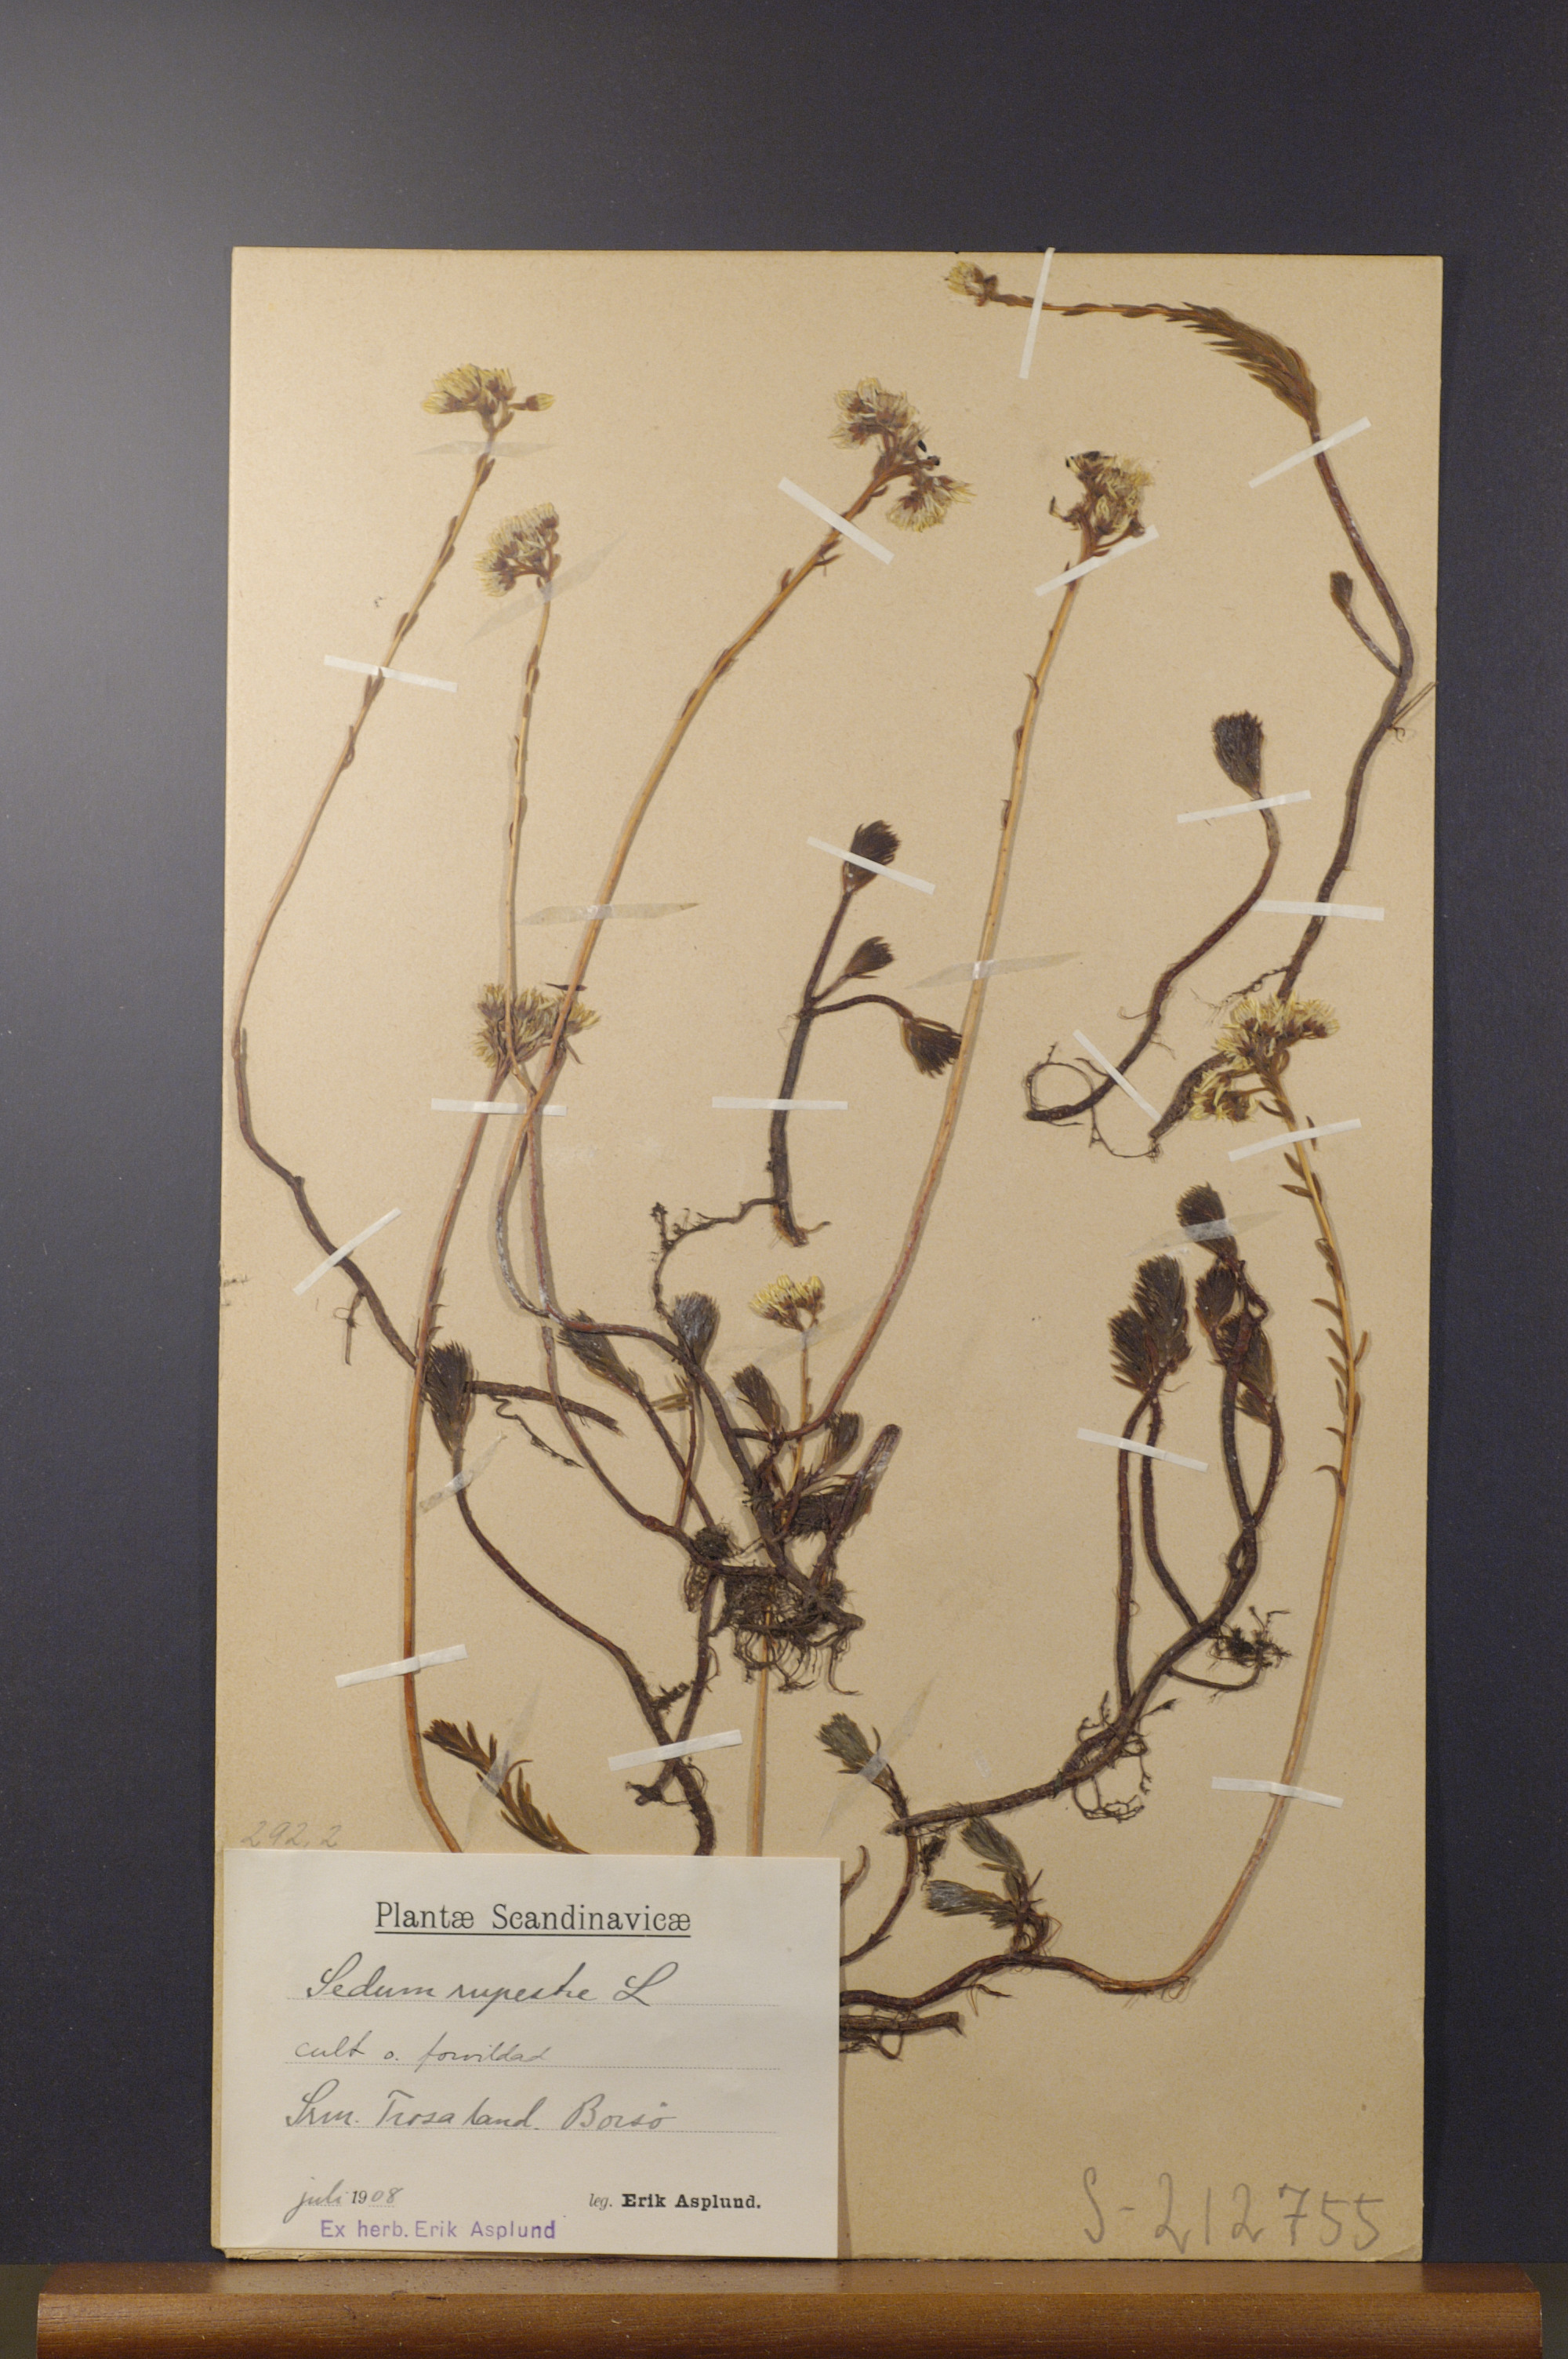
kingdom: Plantae
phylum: Tracheophyta
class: Magnoliopsida
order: Saxifragales
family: Crassulaceae
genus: Petrosedum
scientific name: Petrosedum rupestre
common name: Jenny's stonecrop
